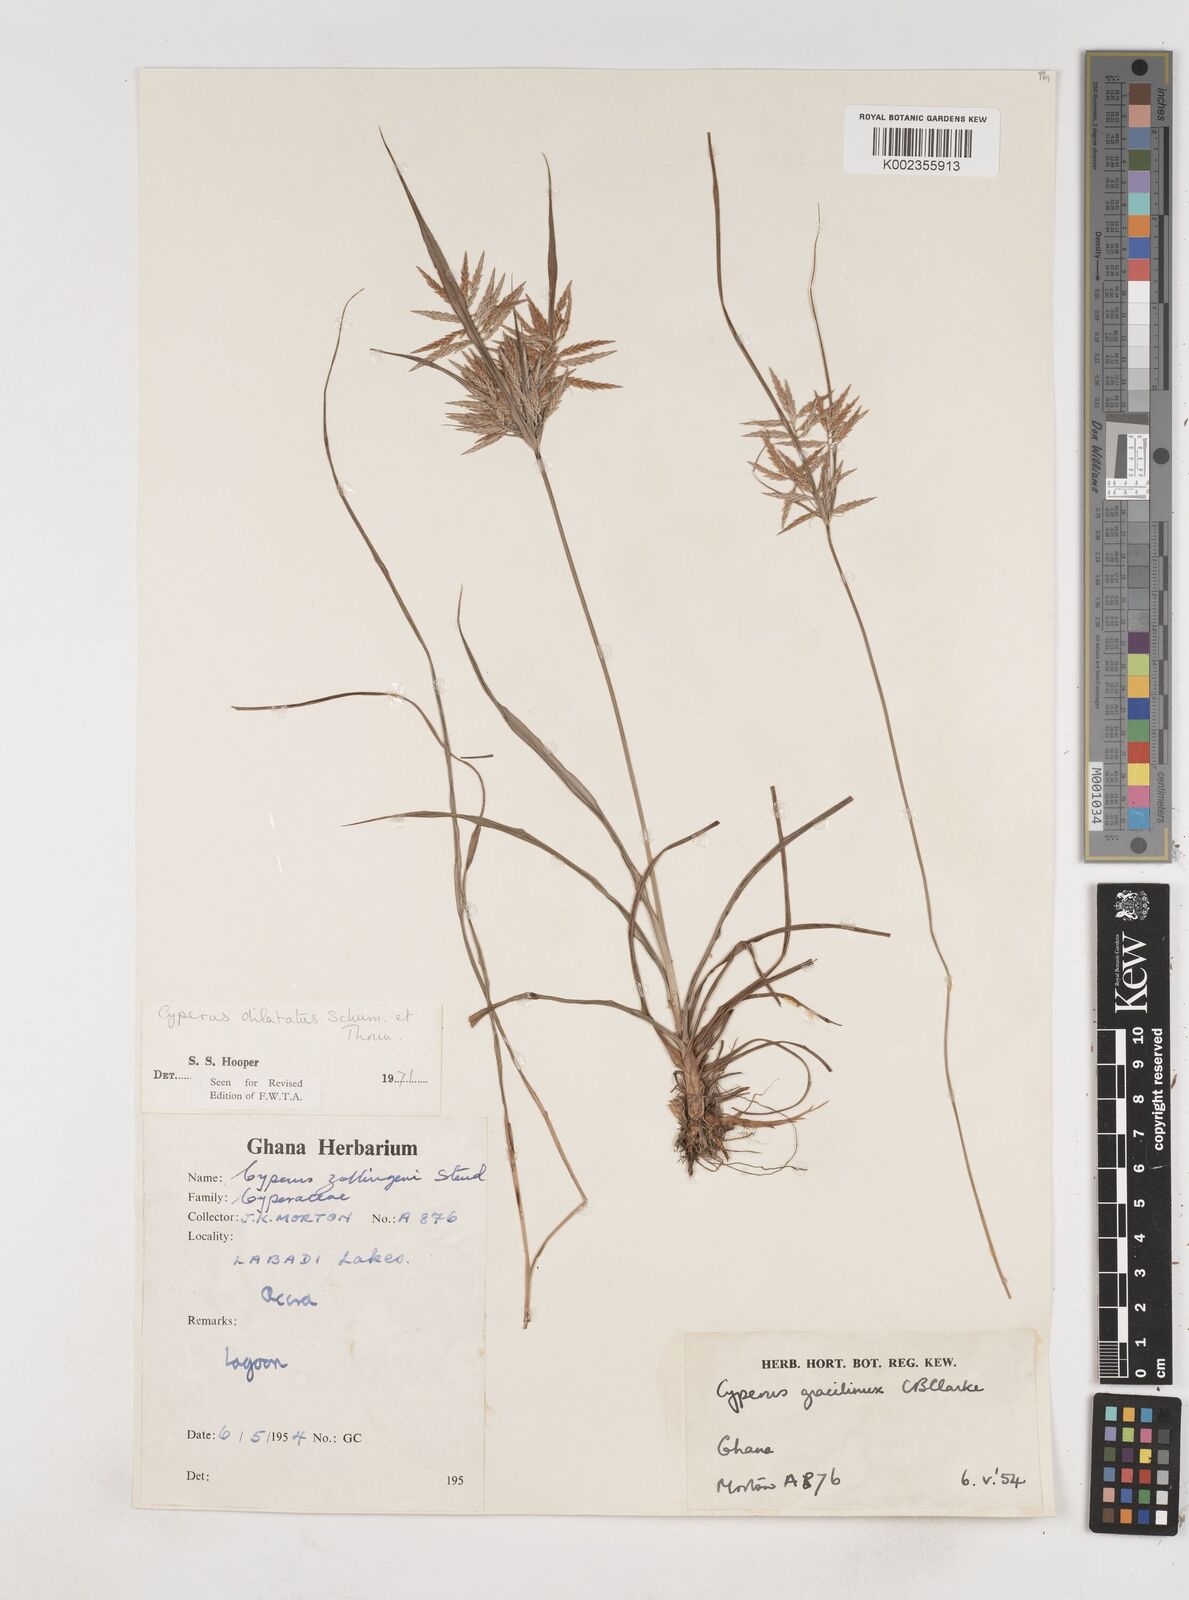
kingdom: Plantae
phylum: Tracheophyta
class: Liliopsida
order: Poales
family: Cyperaceae
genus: Cyperus
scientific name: Cyperus dilatatus
